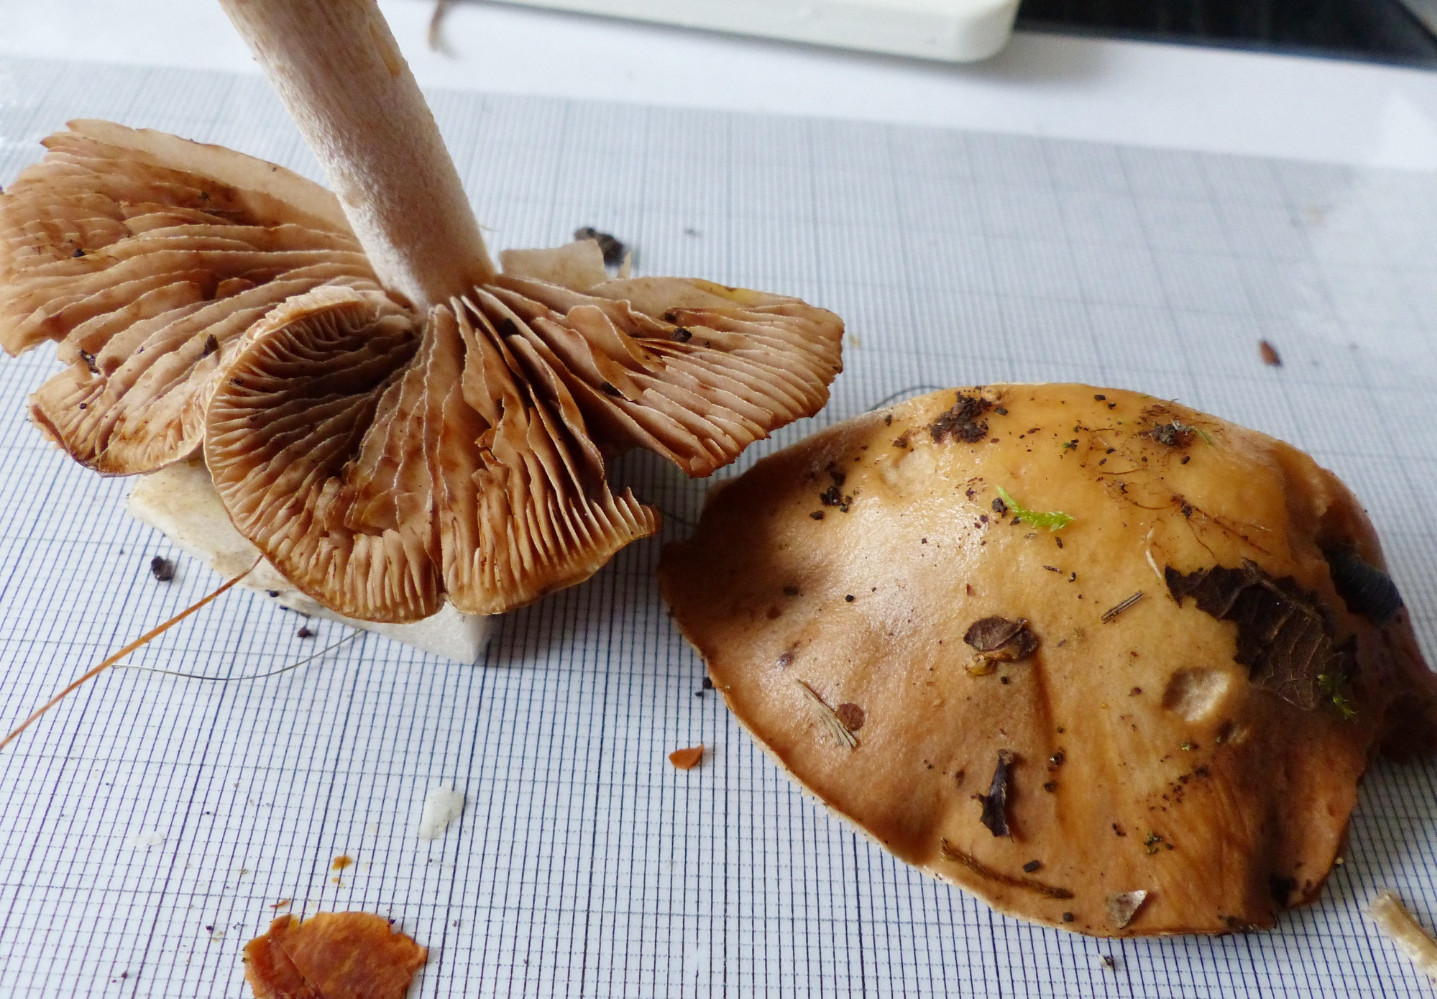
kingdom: Fungi
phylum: Basidiomycota
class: Agaricomycetes
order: Agaricales
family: Hymenogastraceae
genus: Hebeloma
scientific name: Hebeloma
